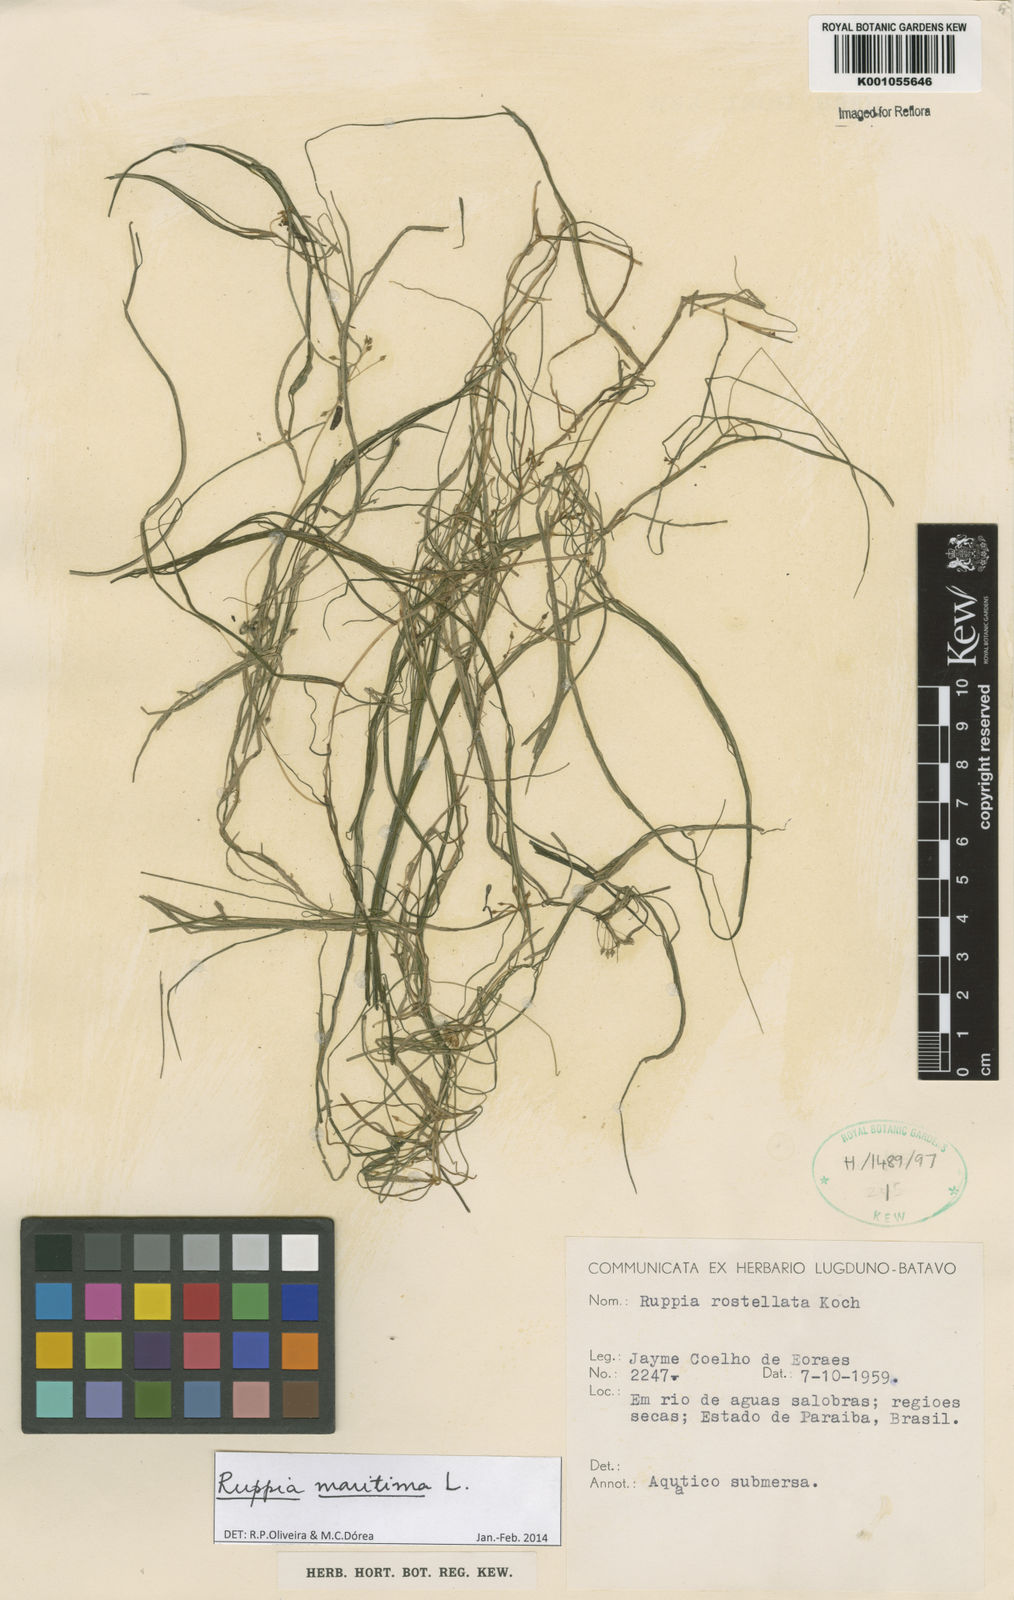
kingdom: Plantae
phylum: Tracheophyta
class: Liliopsida
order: Alismatales
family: Ruppiaceae
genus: Ruppia
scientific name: Ruppia maritima
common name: Beaked tasselweed
